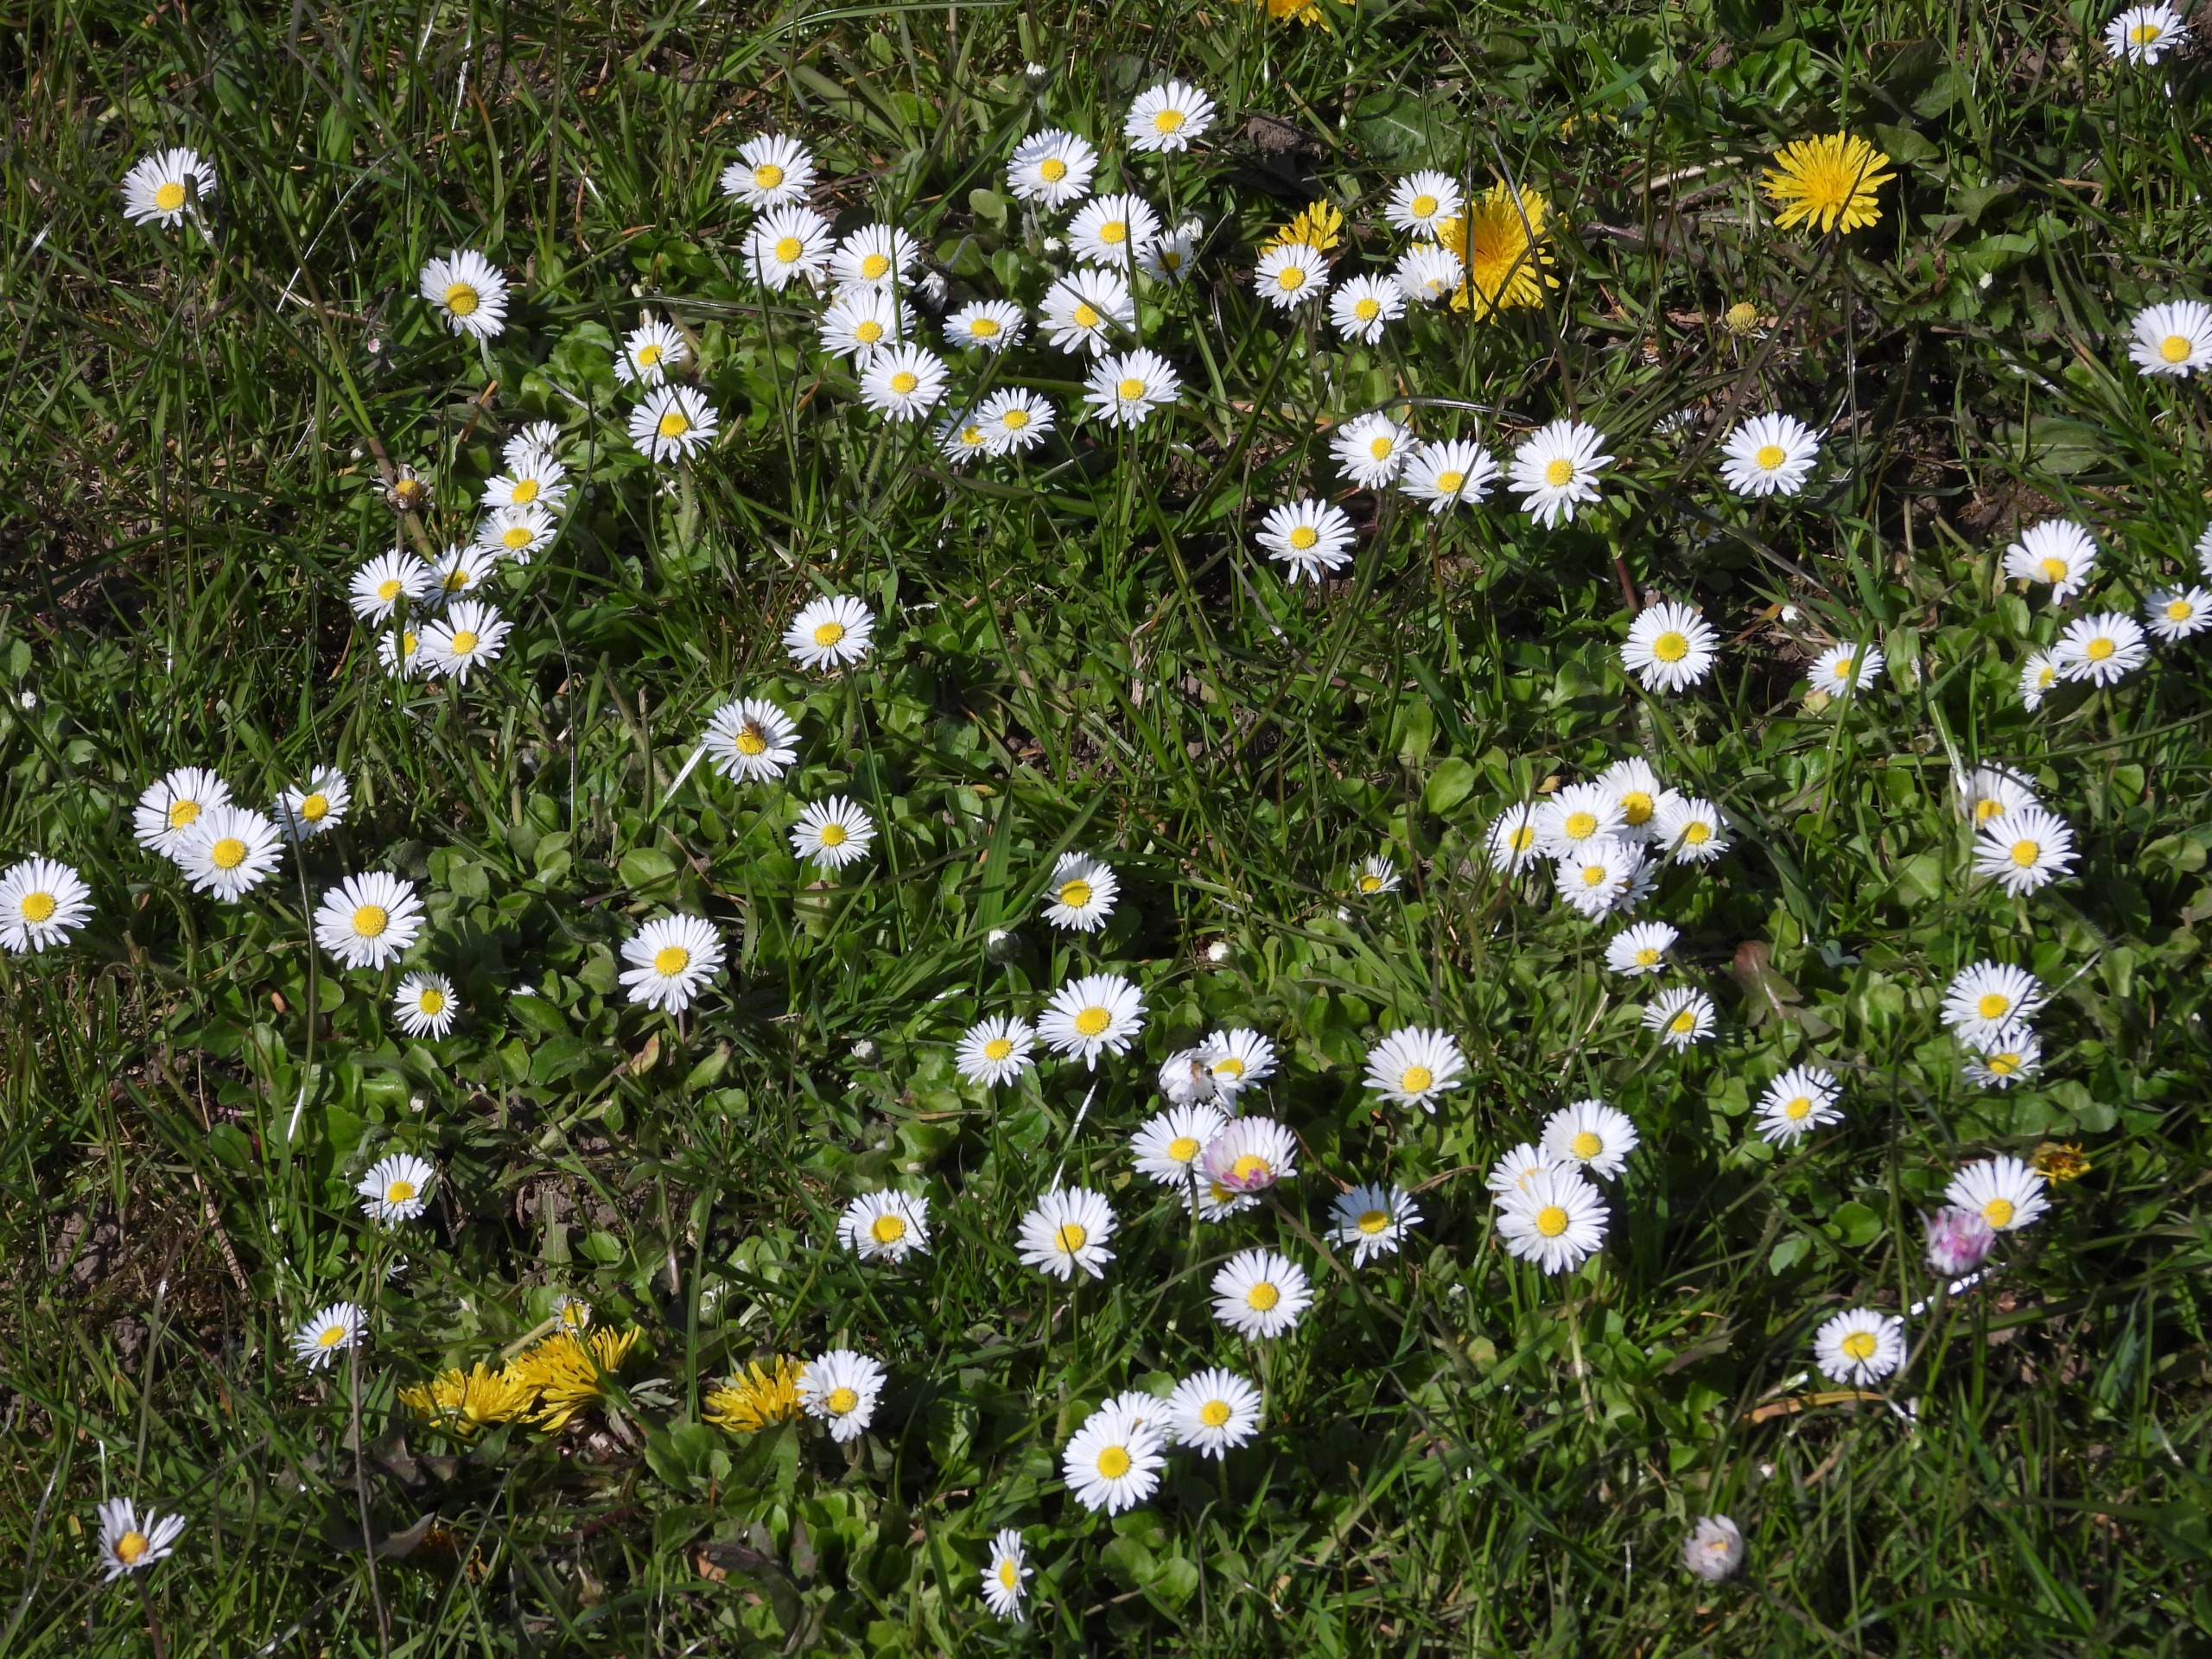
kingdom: Plantae
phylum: Tracheophyta
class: Magnoliopsida
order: Asterales
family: Asteraceae
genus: Bellis
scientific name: Bellis perennis
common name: Tusindfryd
